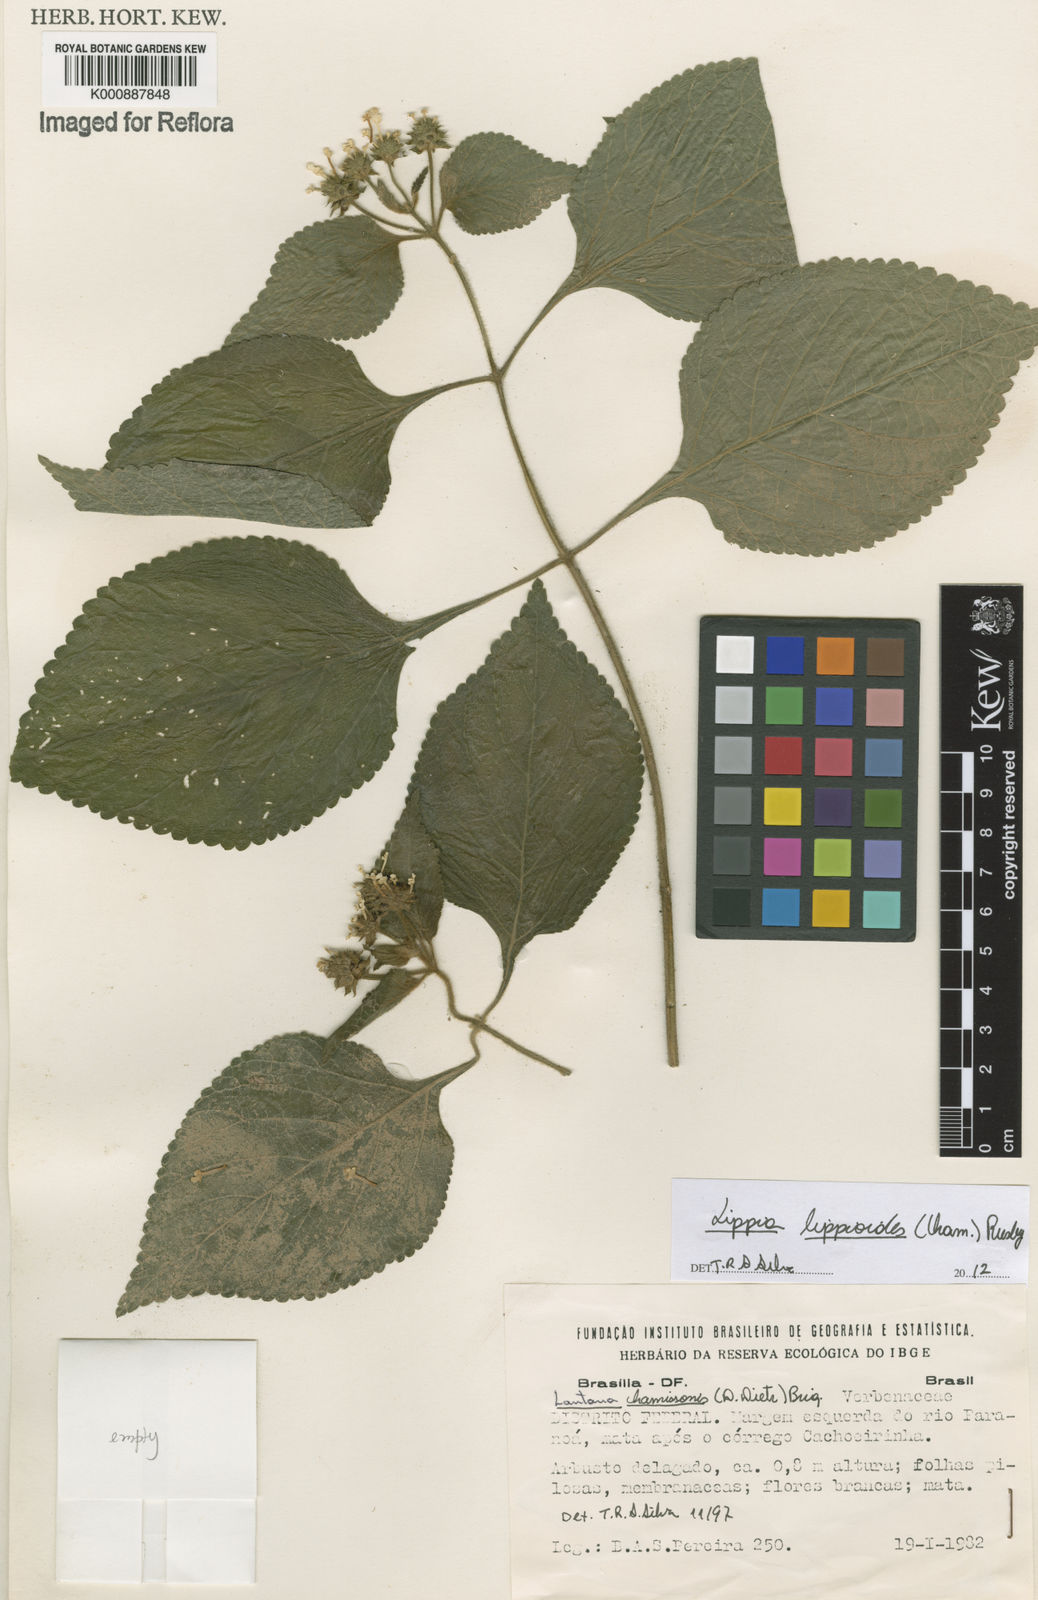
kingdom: Plantae
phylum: Tracheophyta
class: Magnoliopsida
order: Lamiales
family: Verbenaceae
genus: Lippia
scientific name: Lippia lippioides
